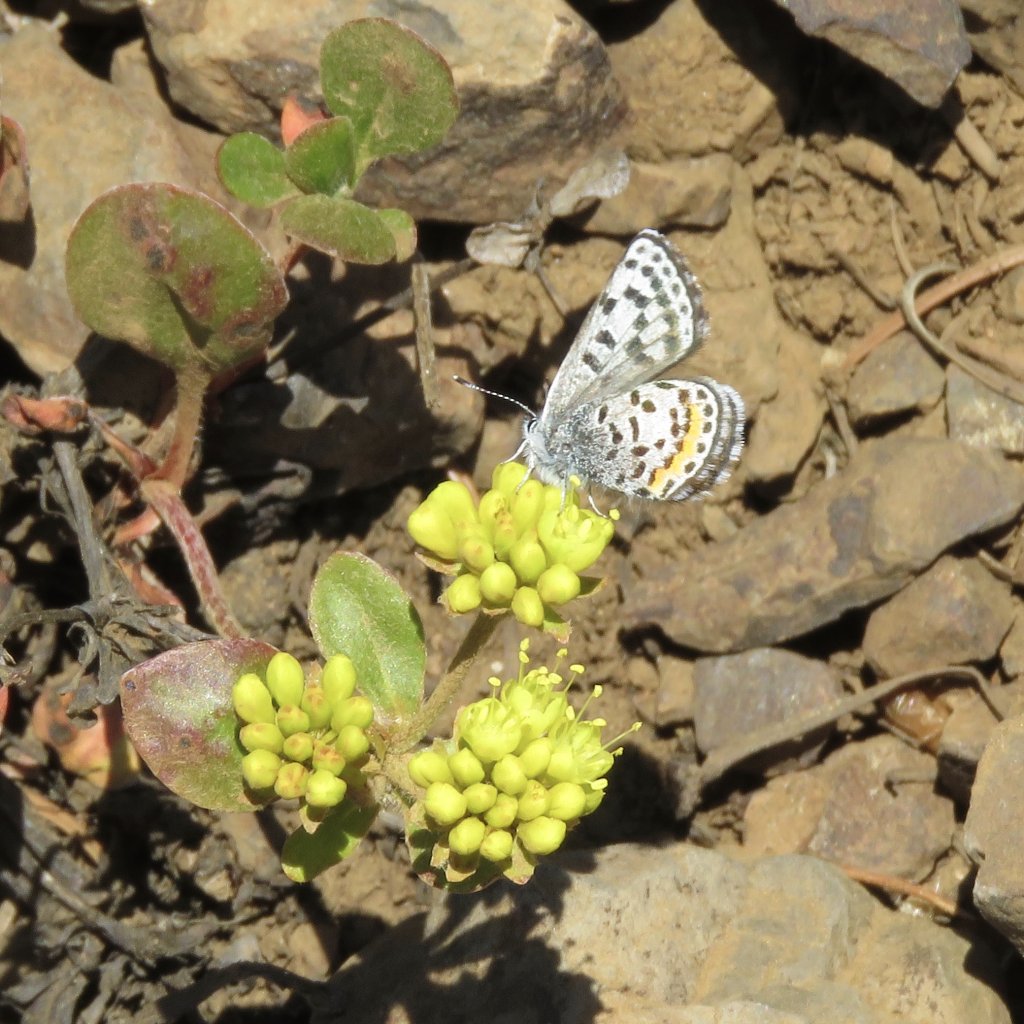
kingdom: Animalia
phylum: Arthropoda
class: Insecta
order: Lepidoptera
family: Lycaenidae
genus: Euphilotes
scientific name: Euphilotes
